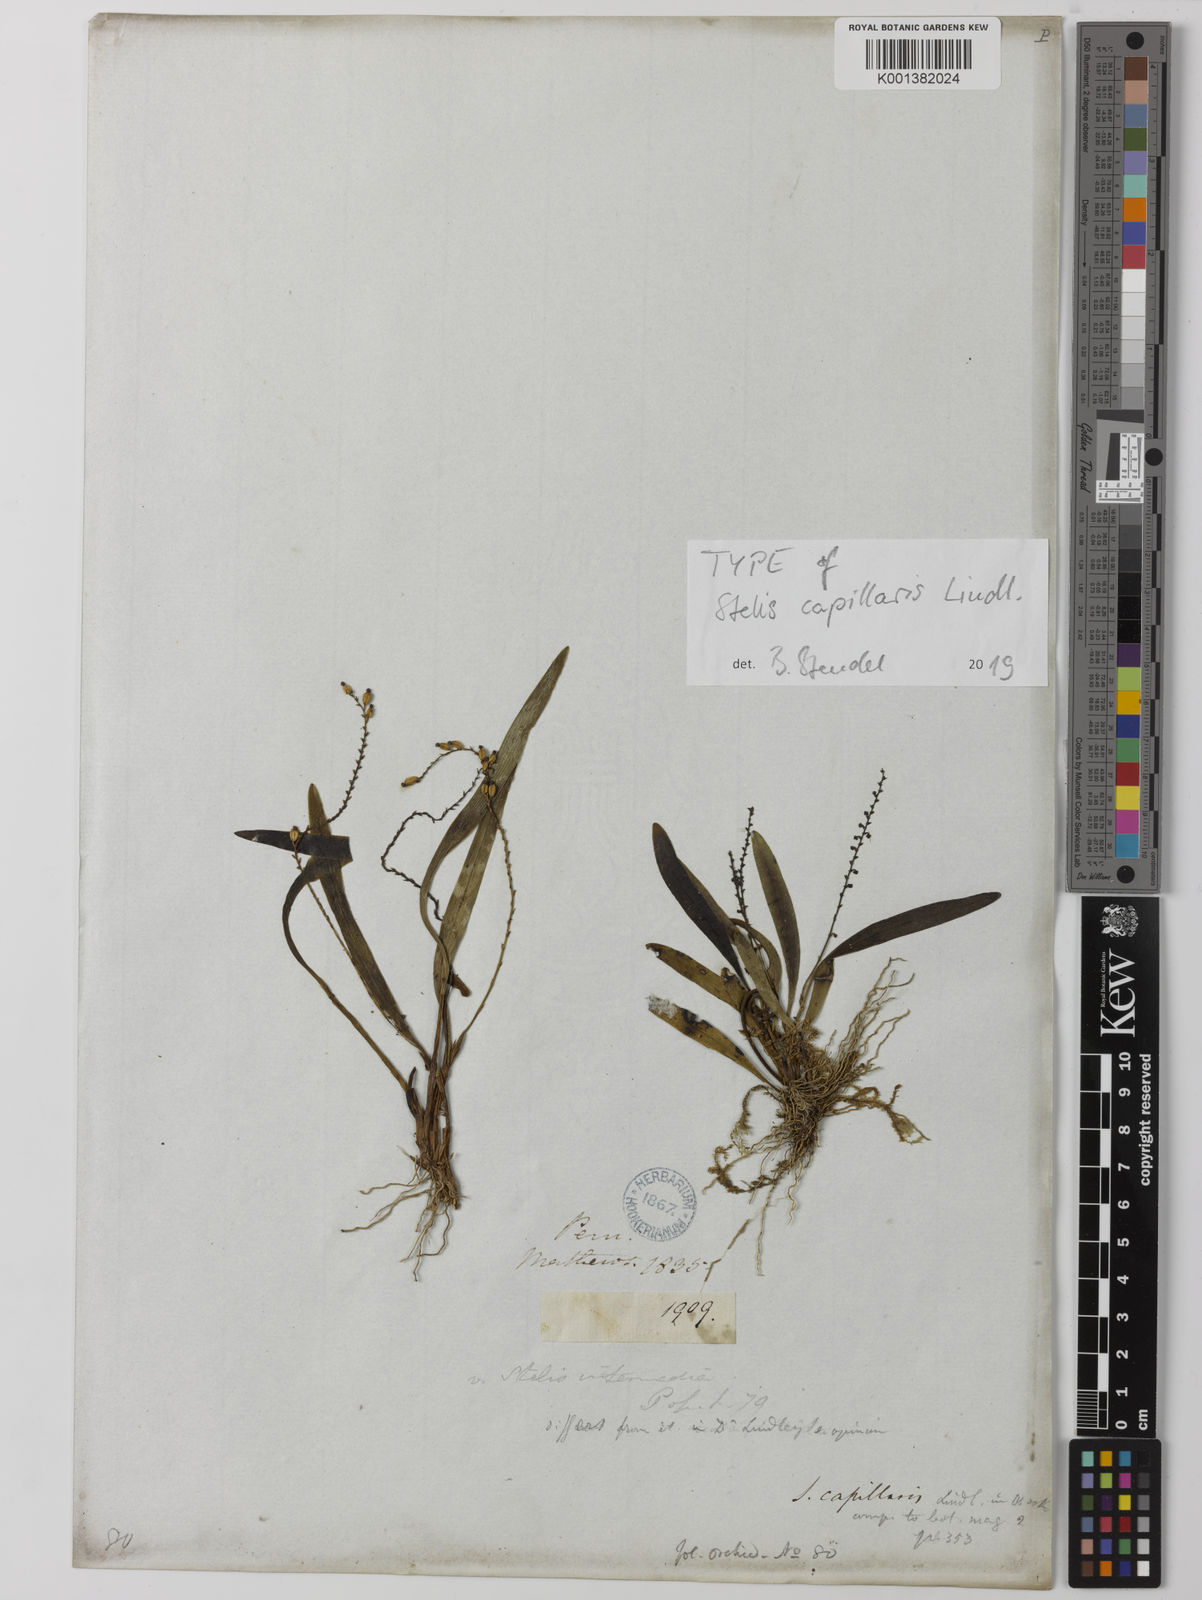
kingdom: Plantae
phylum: Tracheophyta
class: Liliopsida
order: Asparagales
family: Orchidaceae
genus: Stelis
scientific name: Stelis capillaris
